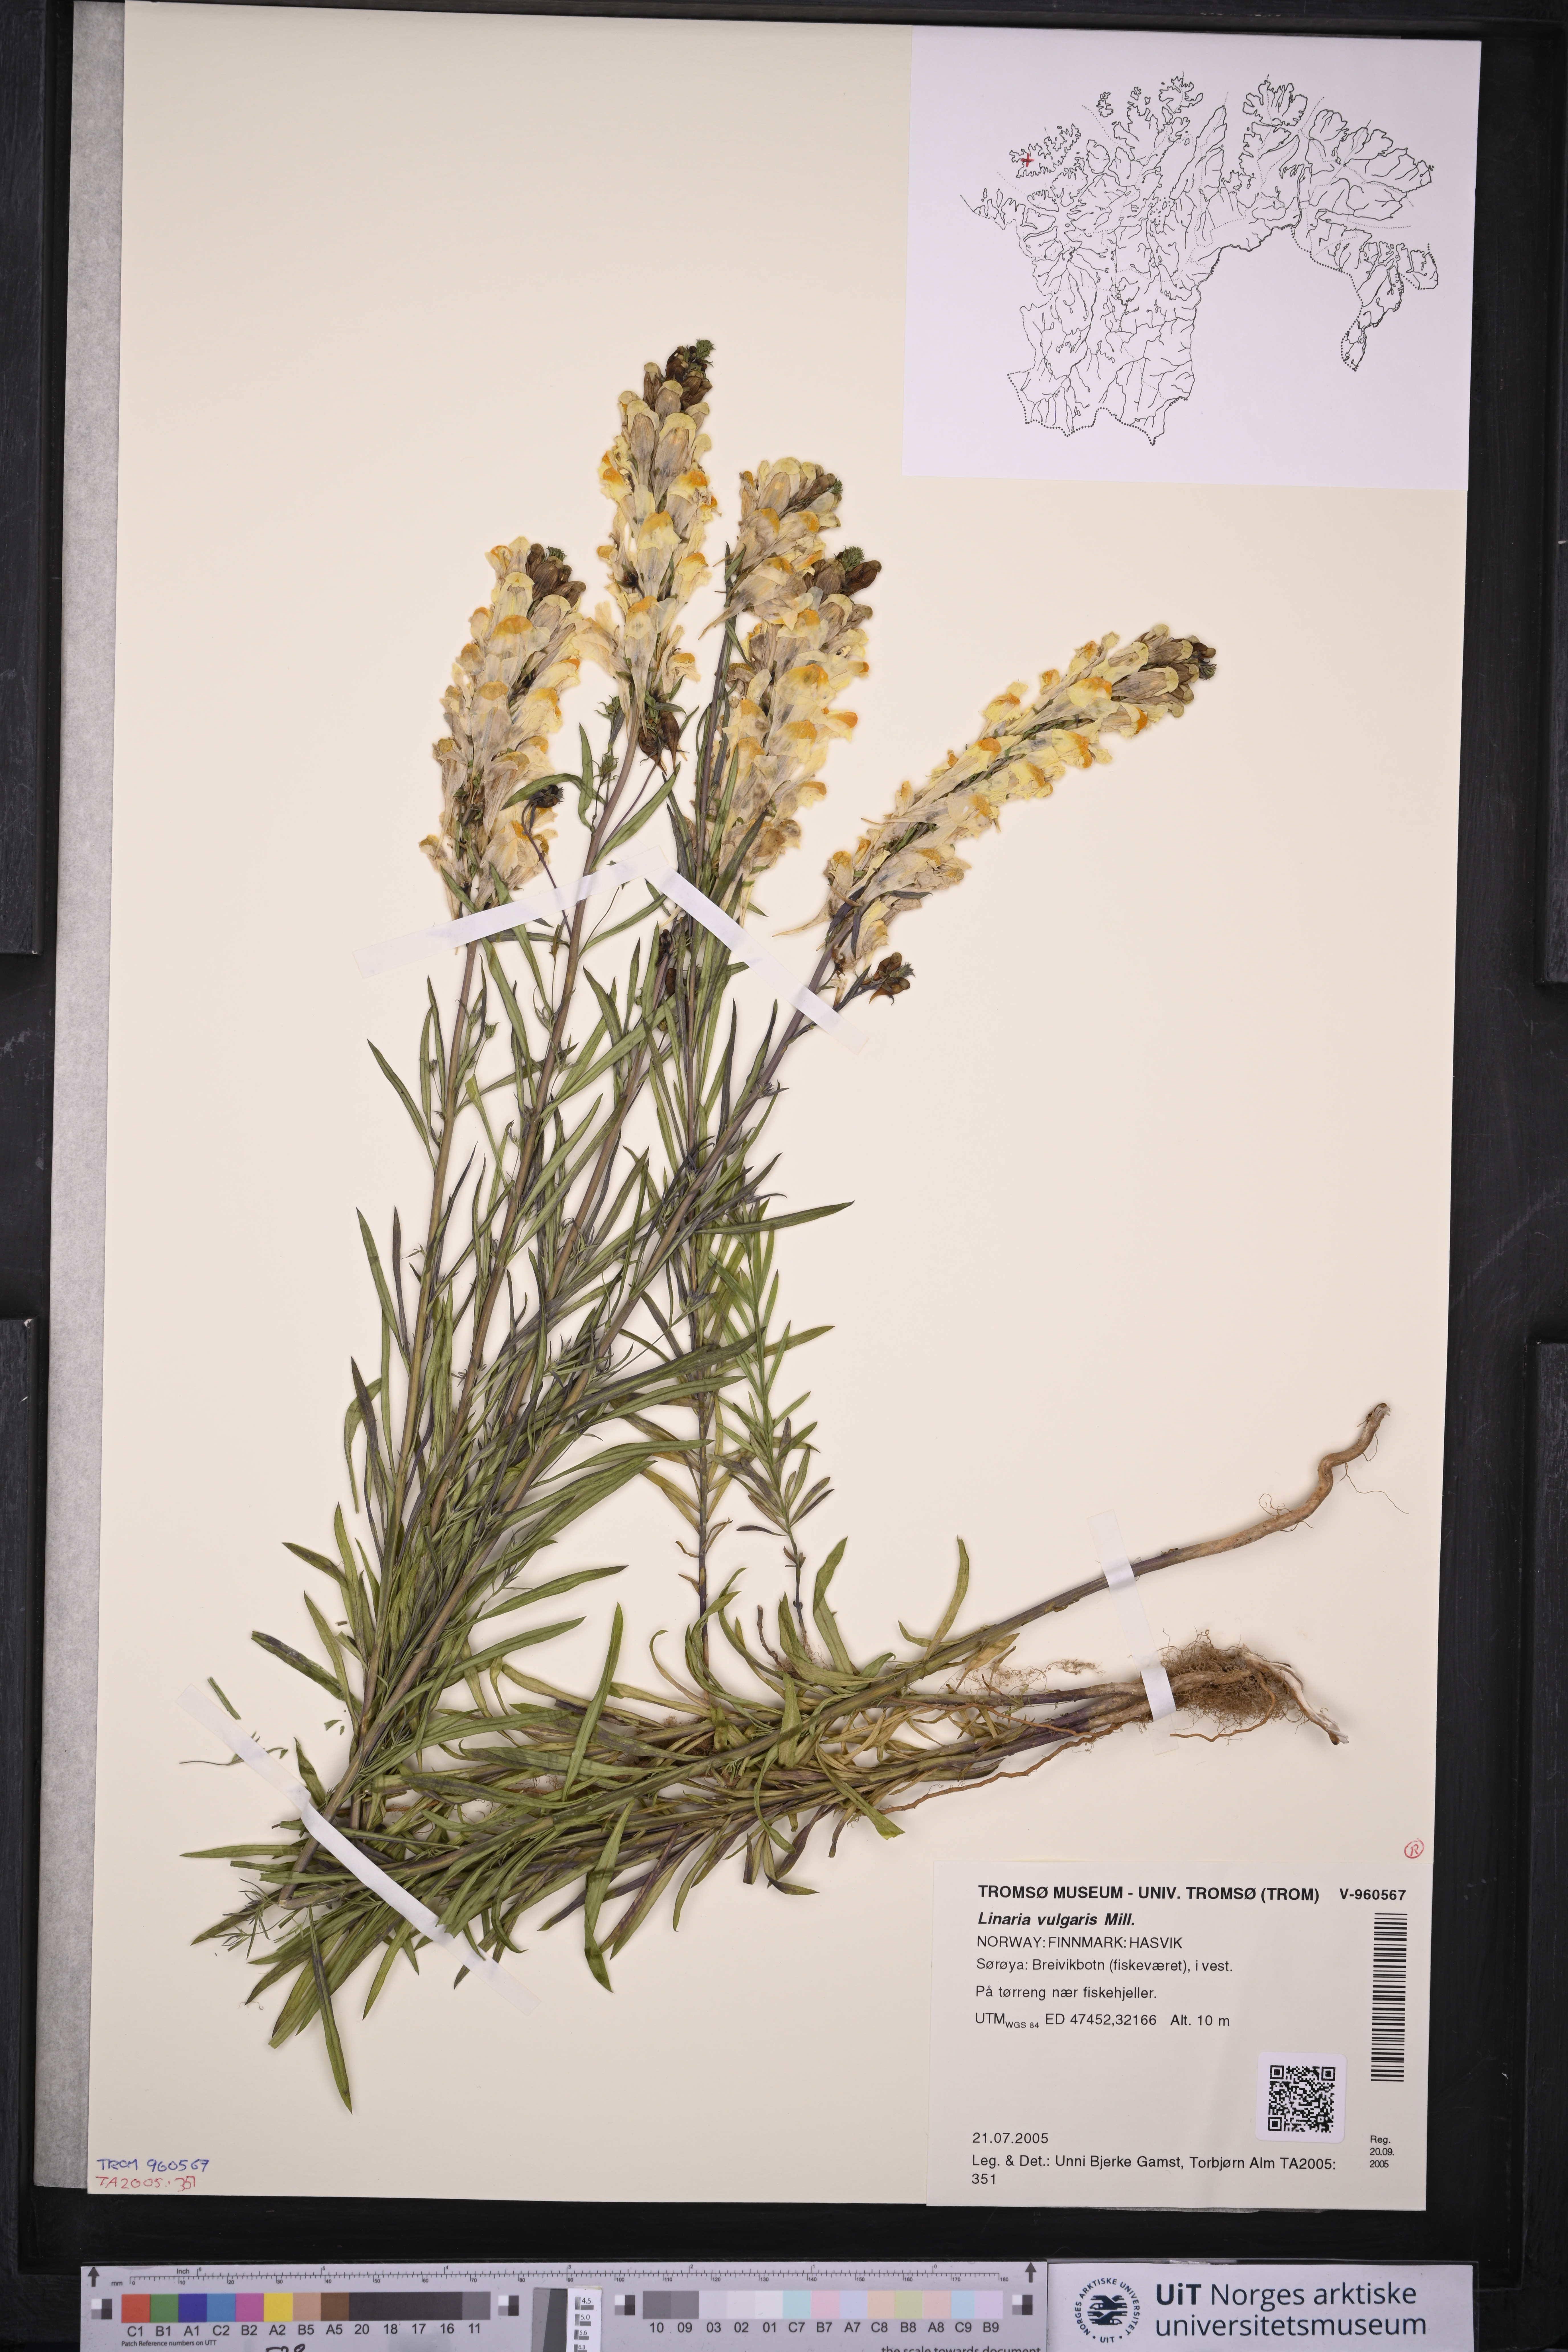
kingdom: Plantae
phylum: Tracheophyta
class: Magnoliopsida
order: Lamiales
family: Plantaginaceae
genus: Linaria
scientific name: Linaria vulgaris
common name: Butter and eggs
